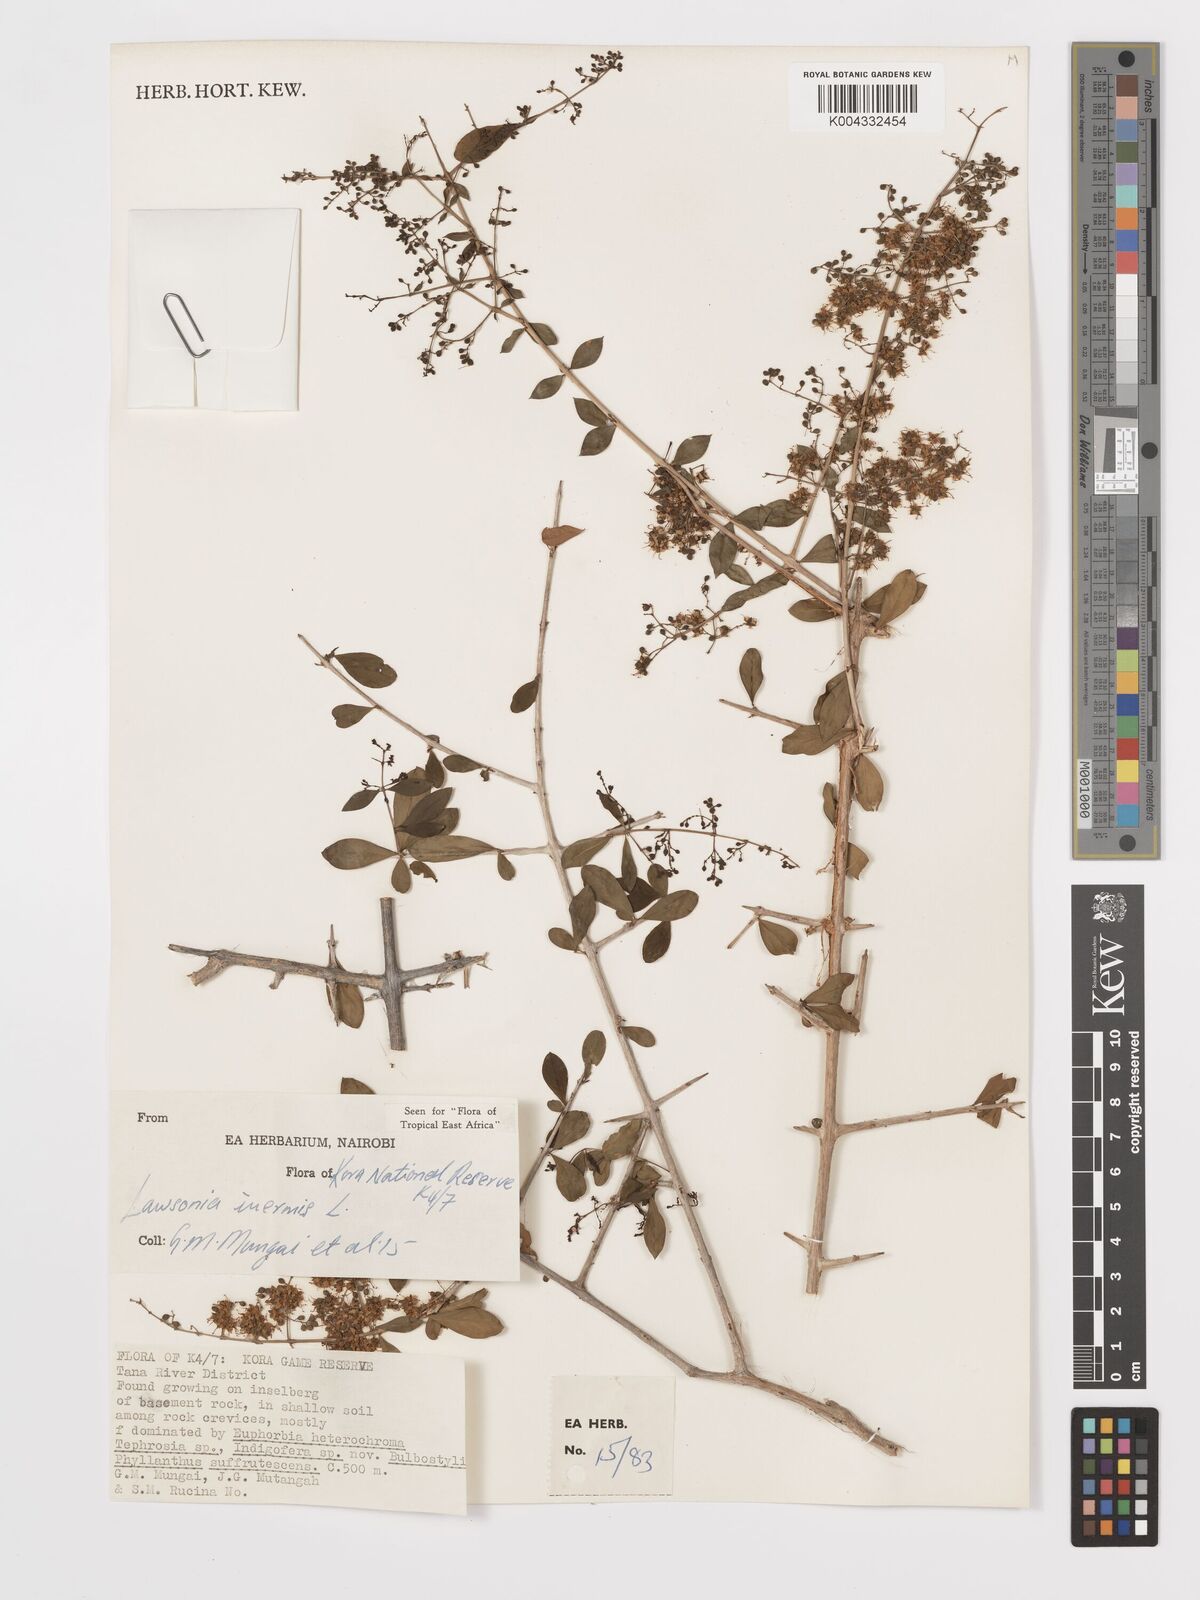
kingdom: Plantae
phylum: Tracheophyta
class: Magnoliopsida
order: Myrtales
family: Lythraceae
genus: Lawsonia
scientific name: Lawsonia inermis
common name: Henna
